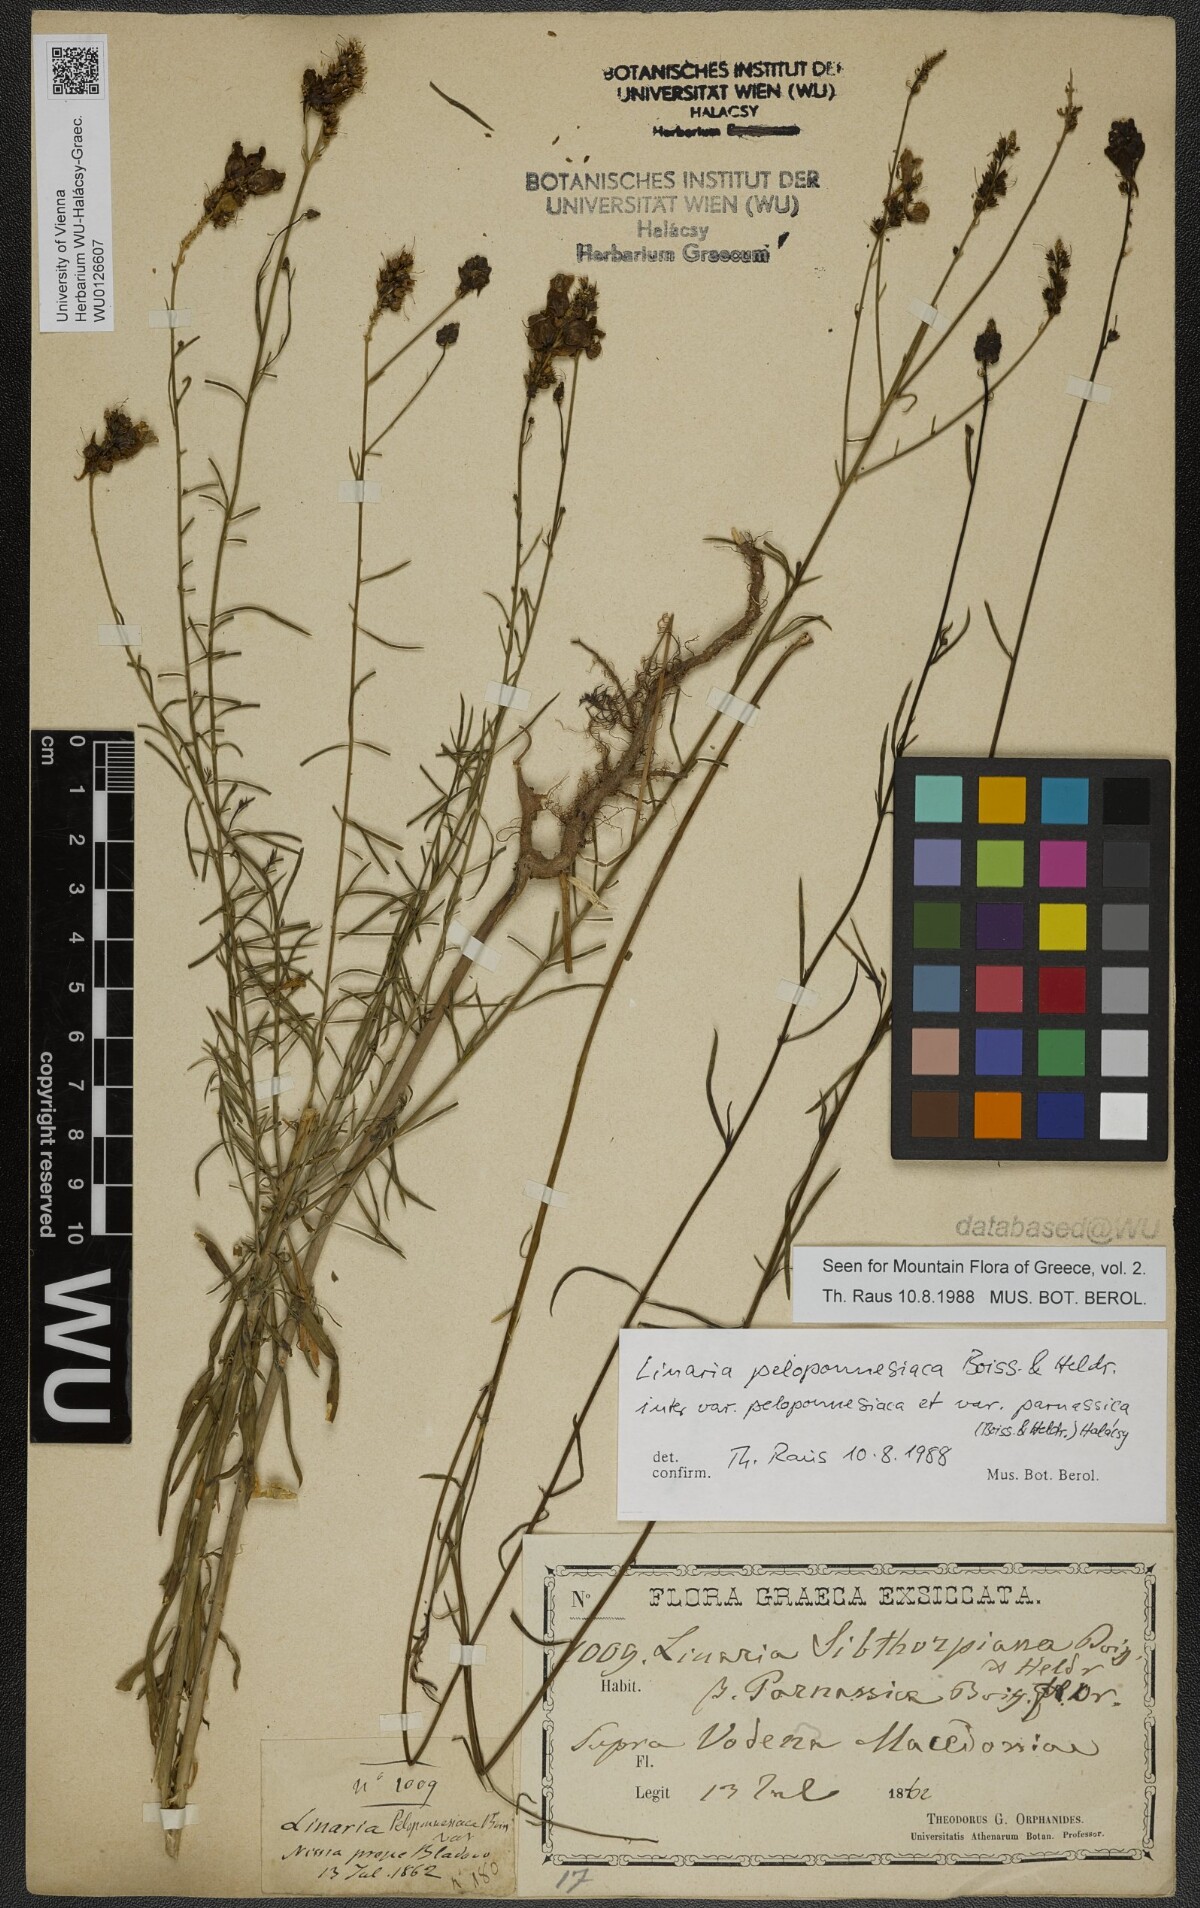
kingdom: Plantae
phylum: Tracheophyta
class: Magnoliopsida
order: Lamiales
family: Plantaginaceae
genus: Linaria
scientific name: Linaria peloponnesiaca
